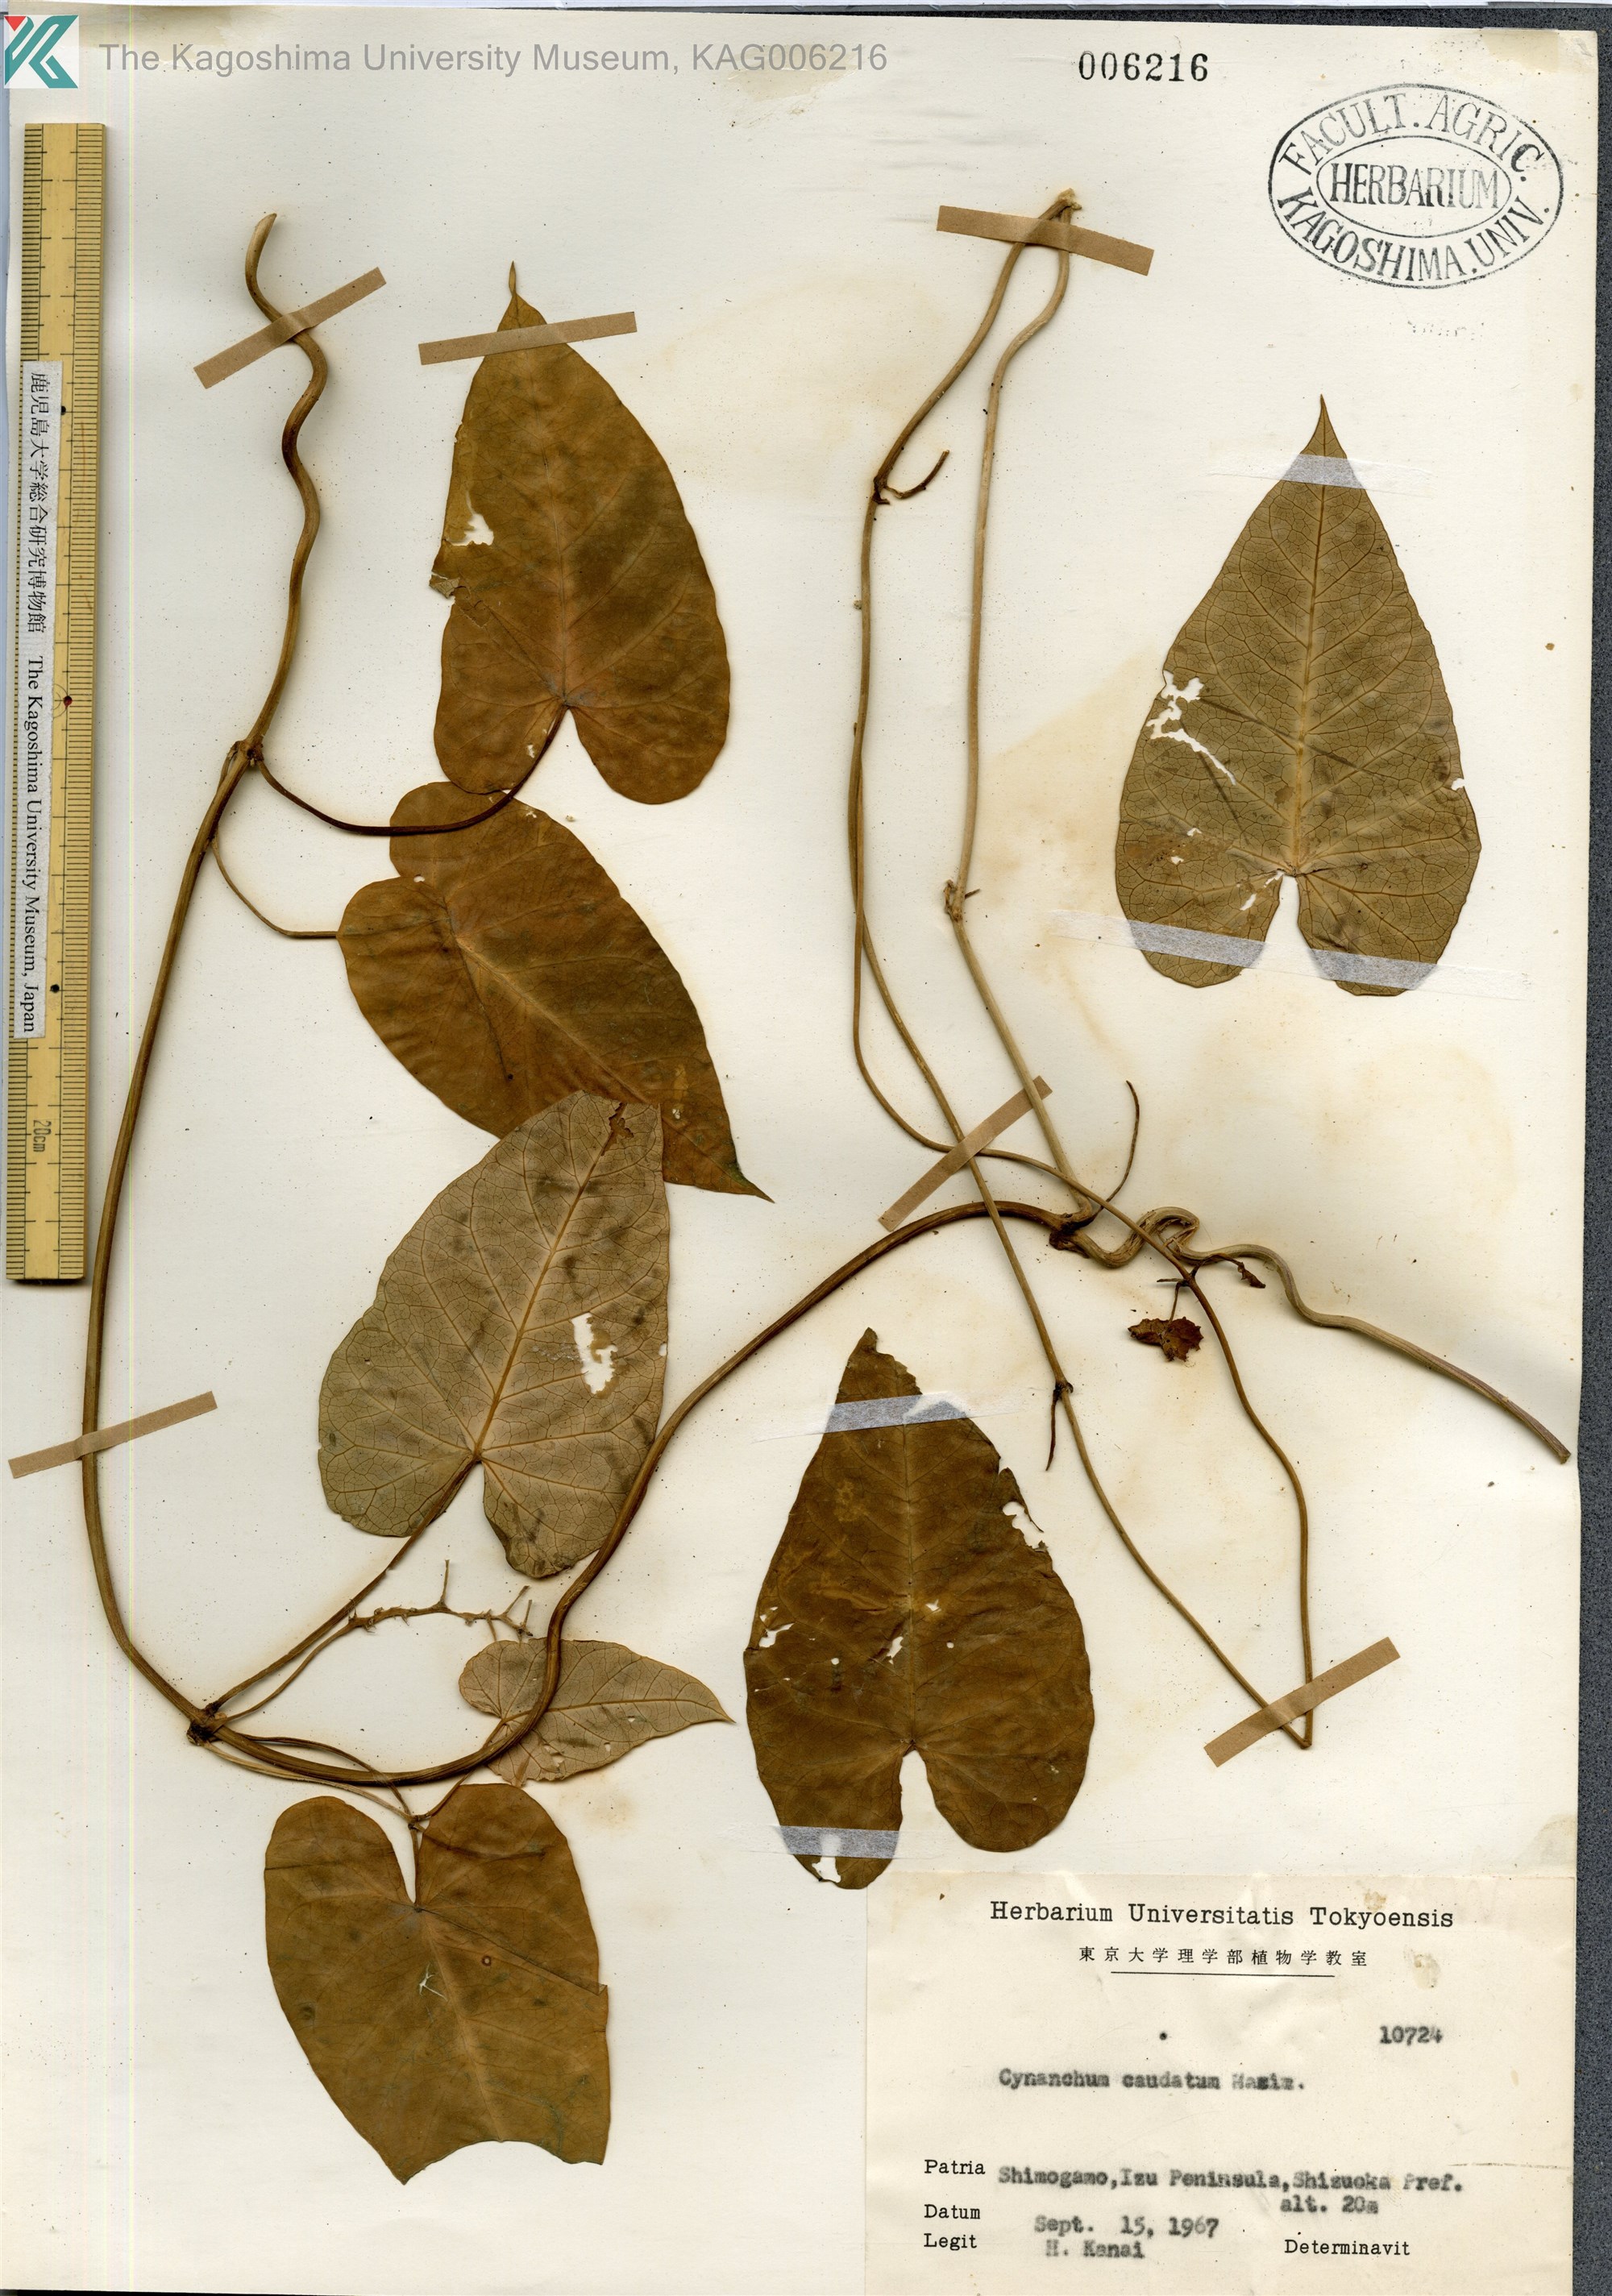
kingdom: Plantae
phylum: Tracheophyta
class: Magnoliopsida
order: Gentianales
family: Apocynaceae
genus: Cynanchum
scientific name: Cynanchum rostellatum
